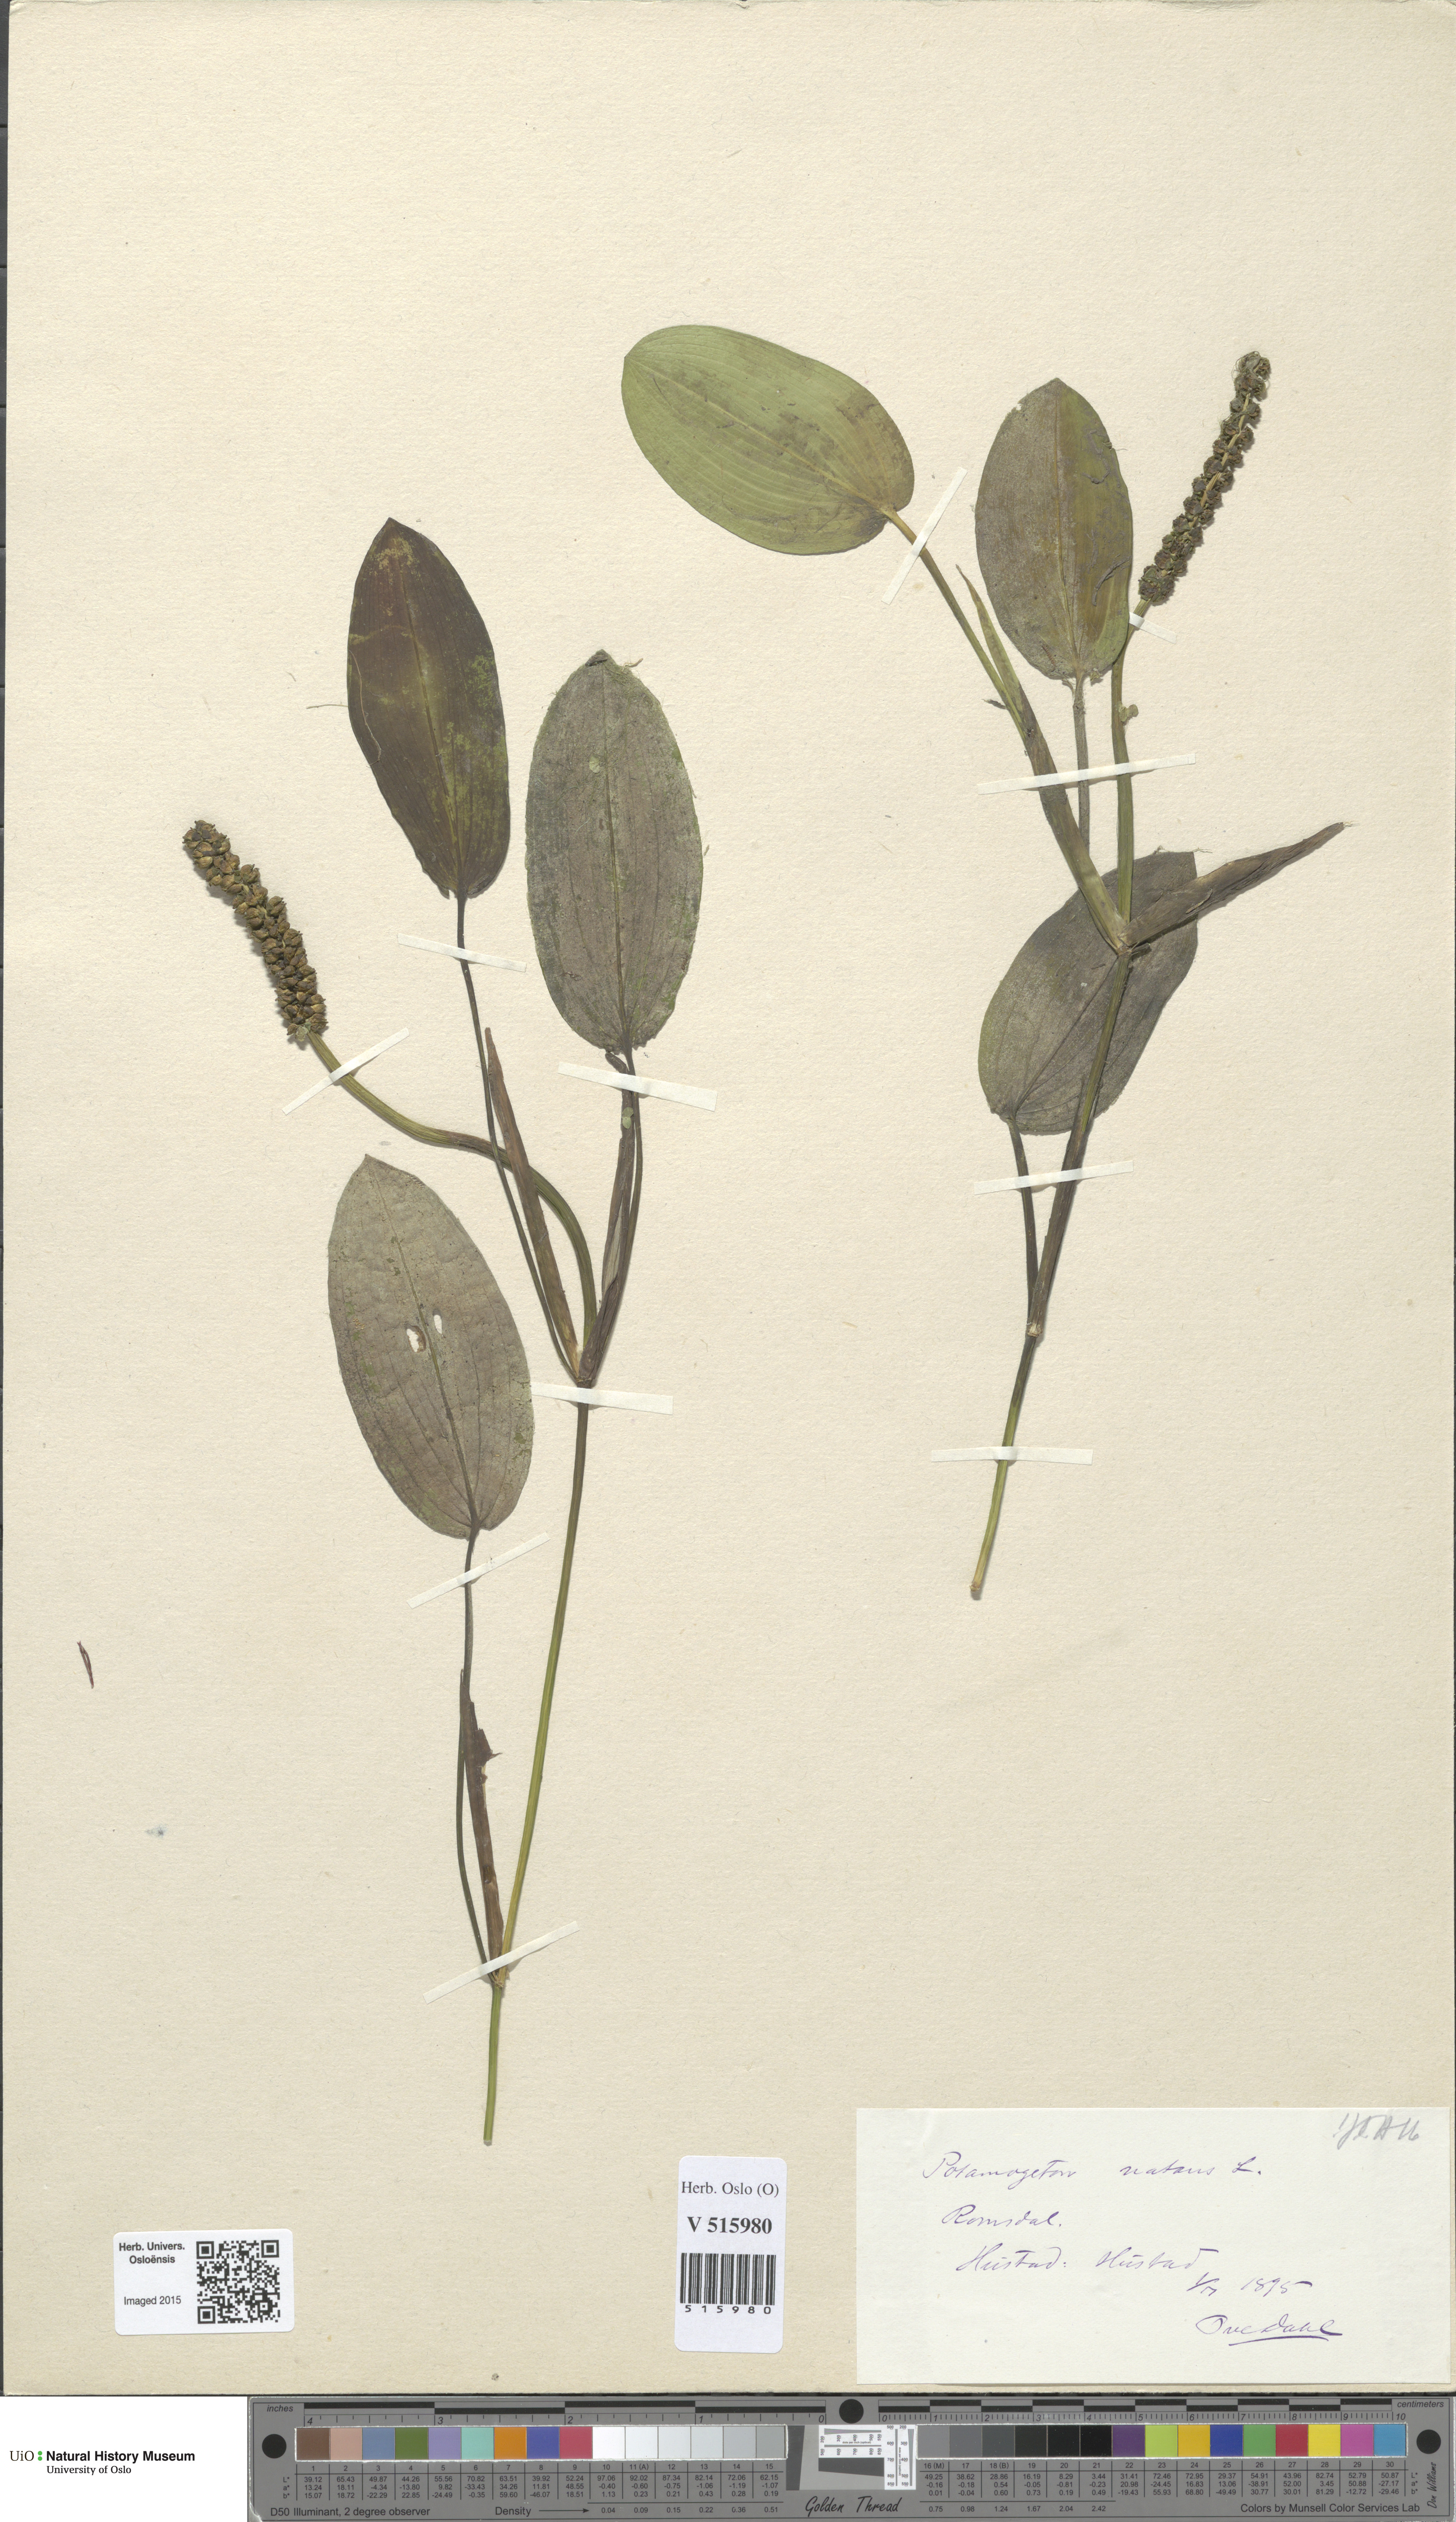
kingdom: Plantae
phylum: Tracheophyta
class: Liliopsida
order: Alismatales
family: Potamogetonaceae
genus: Potamogeton
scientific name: Potamogeton natans
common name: Broad-leaved pondweed
